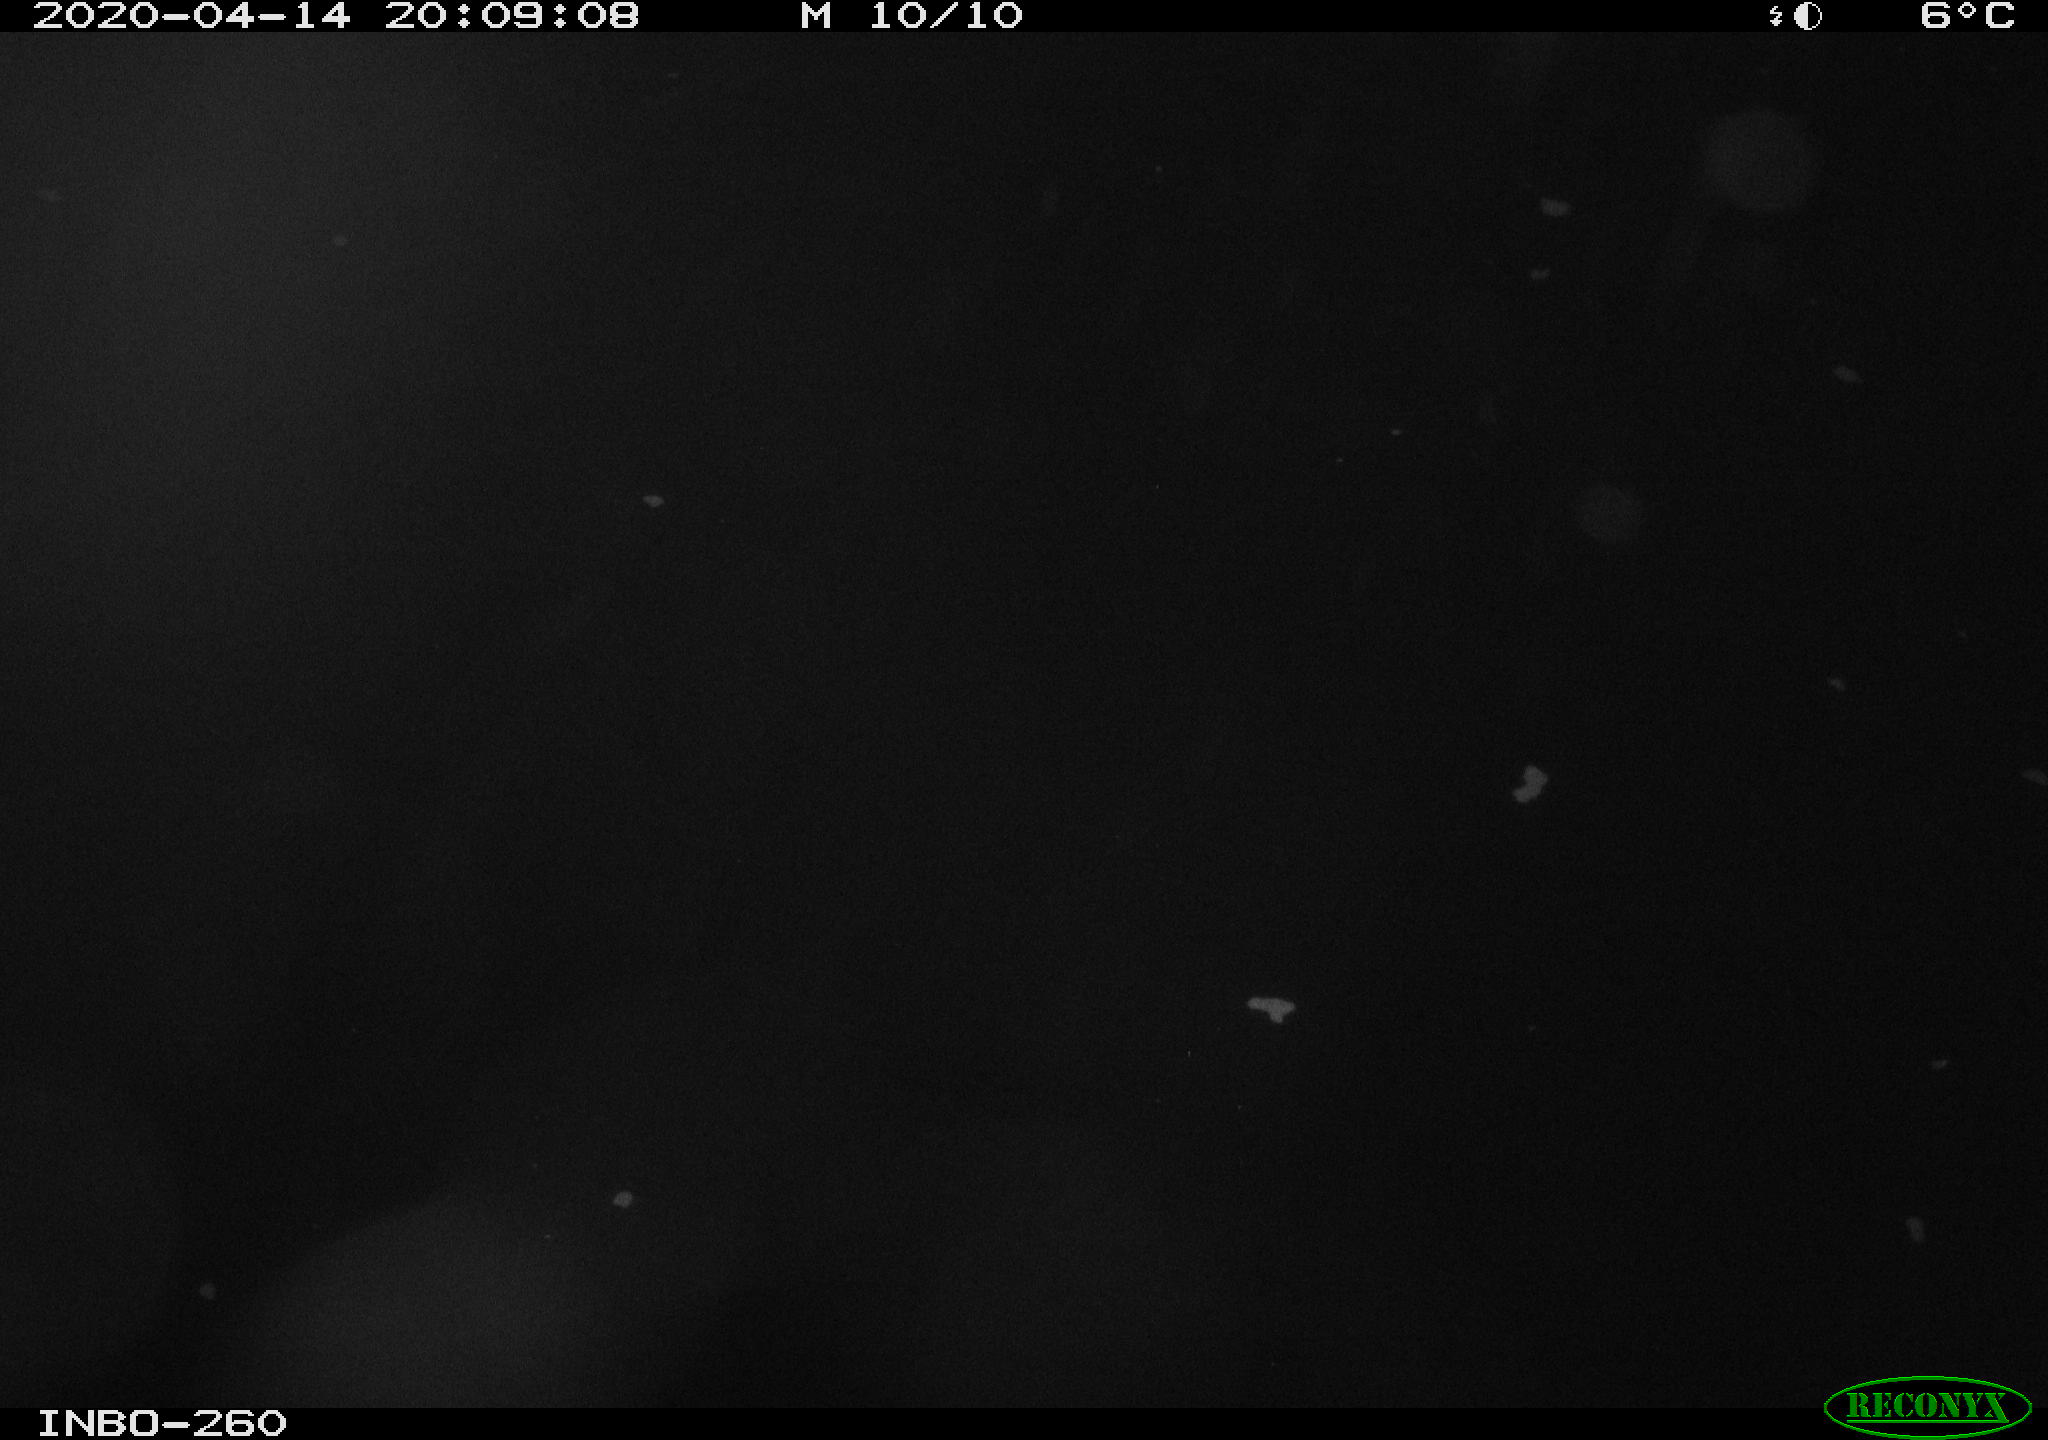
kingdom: Animalia
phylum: Chordata
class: Aves
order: Anseriformes
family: Anatidae
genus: Anas
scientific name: Anas platyrhynchos
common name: Mallard
